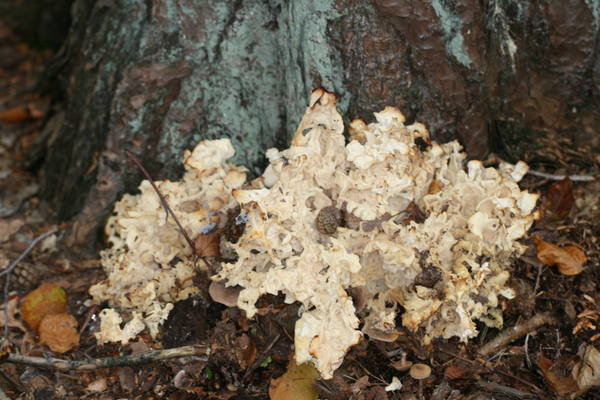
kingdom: Fungi
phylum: Basidiomycota
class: Agaricomycetes
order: Polyporales
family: Sparassidaceae
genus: Sparassis
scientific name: Sparassis crispa
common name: kruset blomkålssvamp
